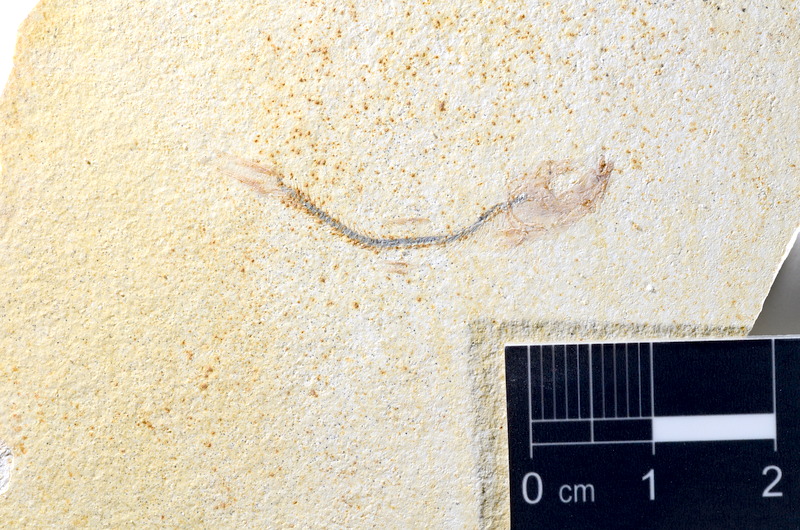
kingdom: Animalia
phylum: Chordata
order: Salmoniformes
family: Orthogonikleithridae
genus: Orthogonikleithrus
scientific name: Orthogonikleithrus hoelli
